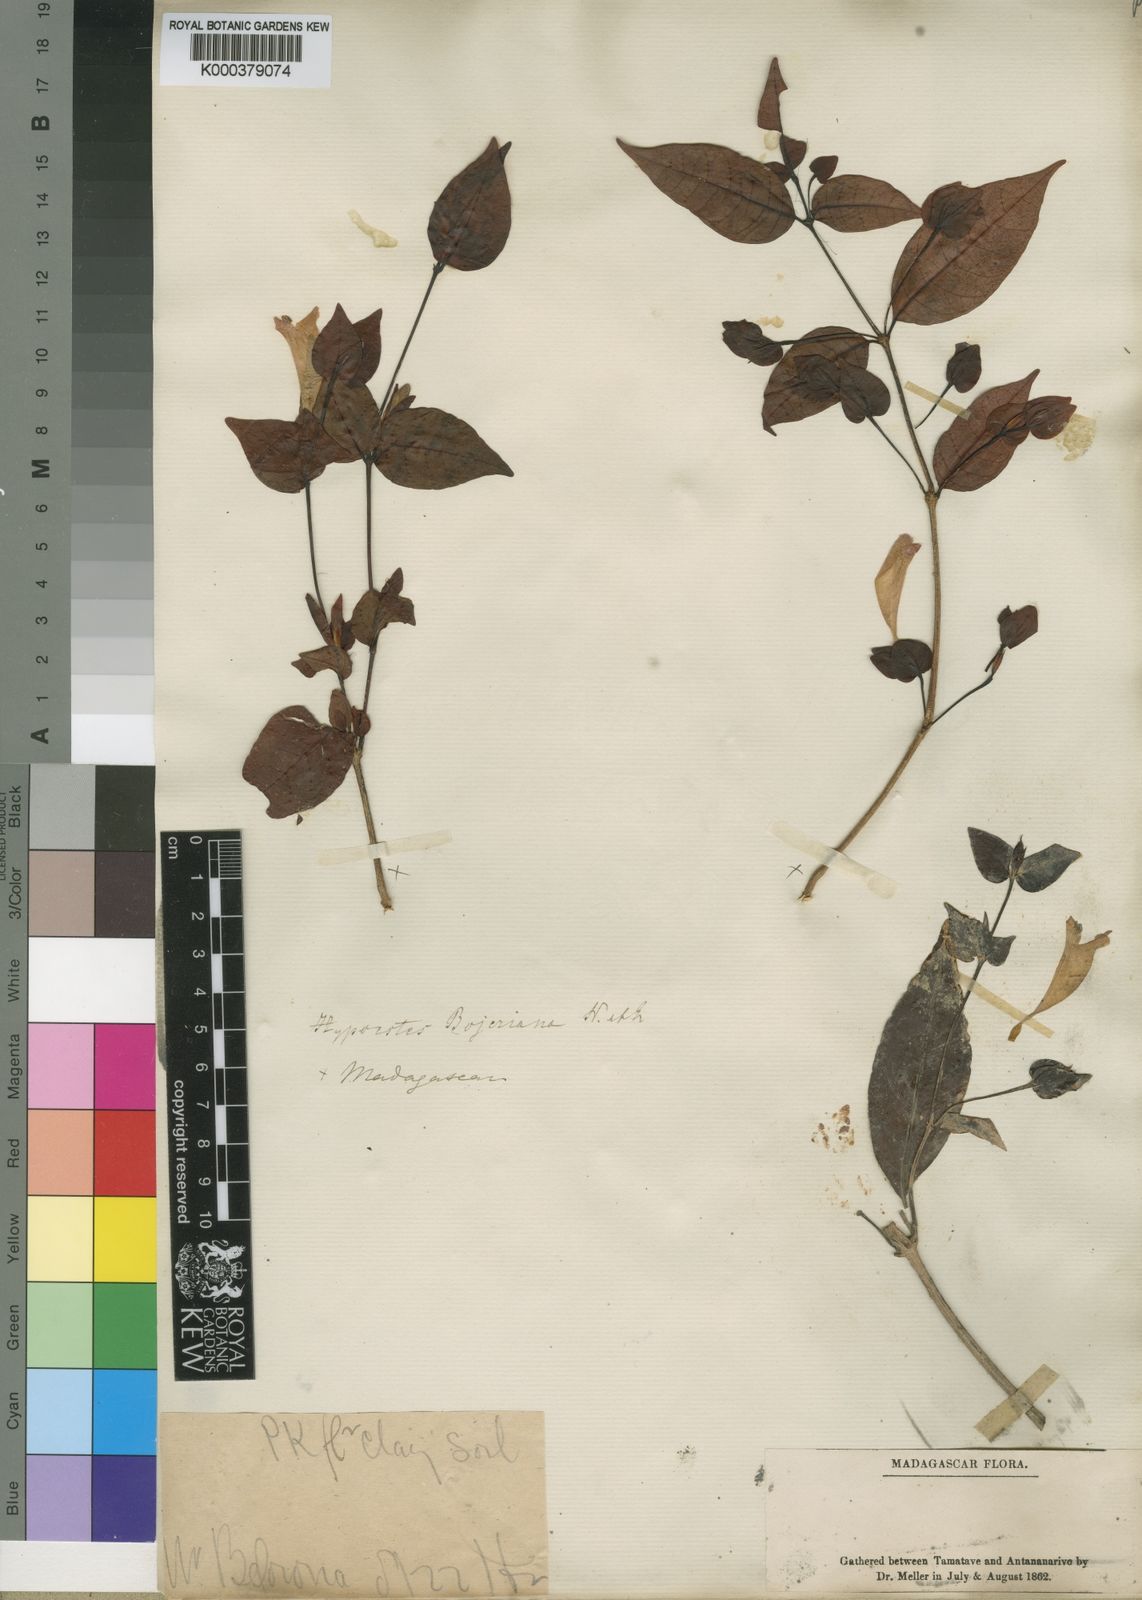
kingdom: Plantae
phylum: Tracheophyta
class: Magnoliopsida
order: Lamiales
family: Acanthaceae
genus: Hypoestes
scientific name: Hypoestes bojeriana
